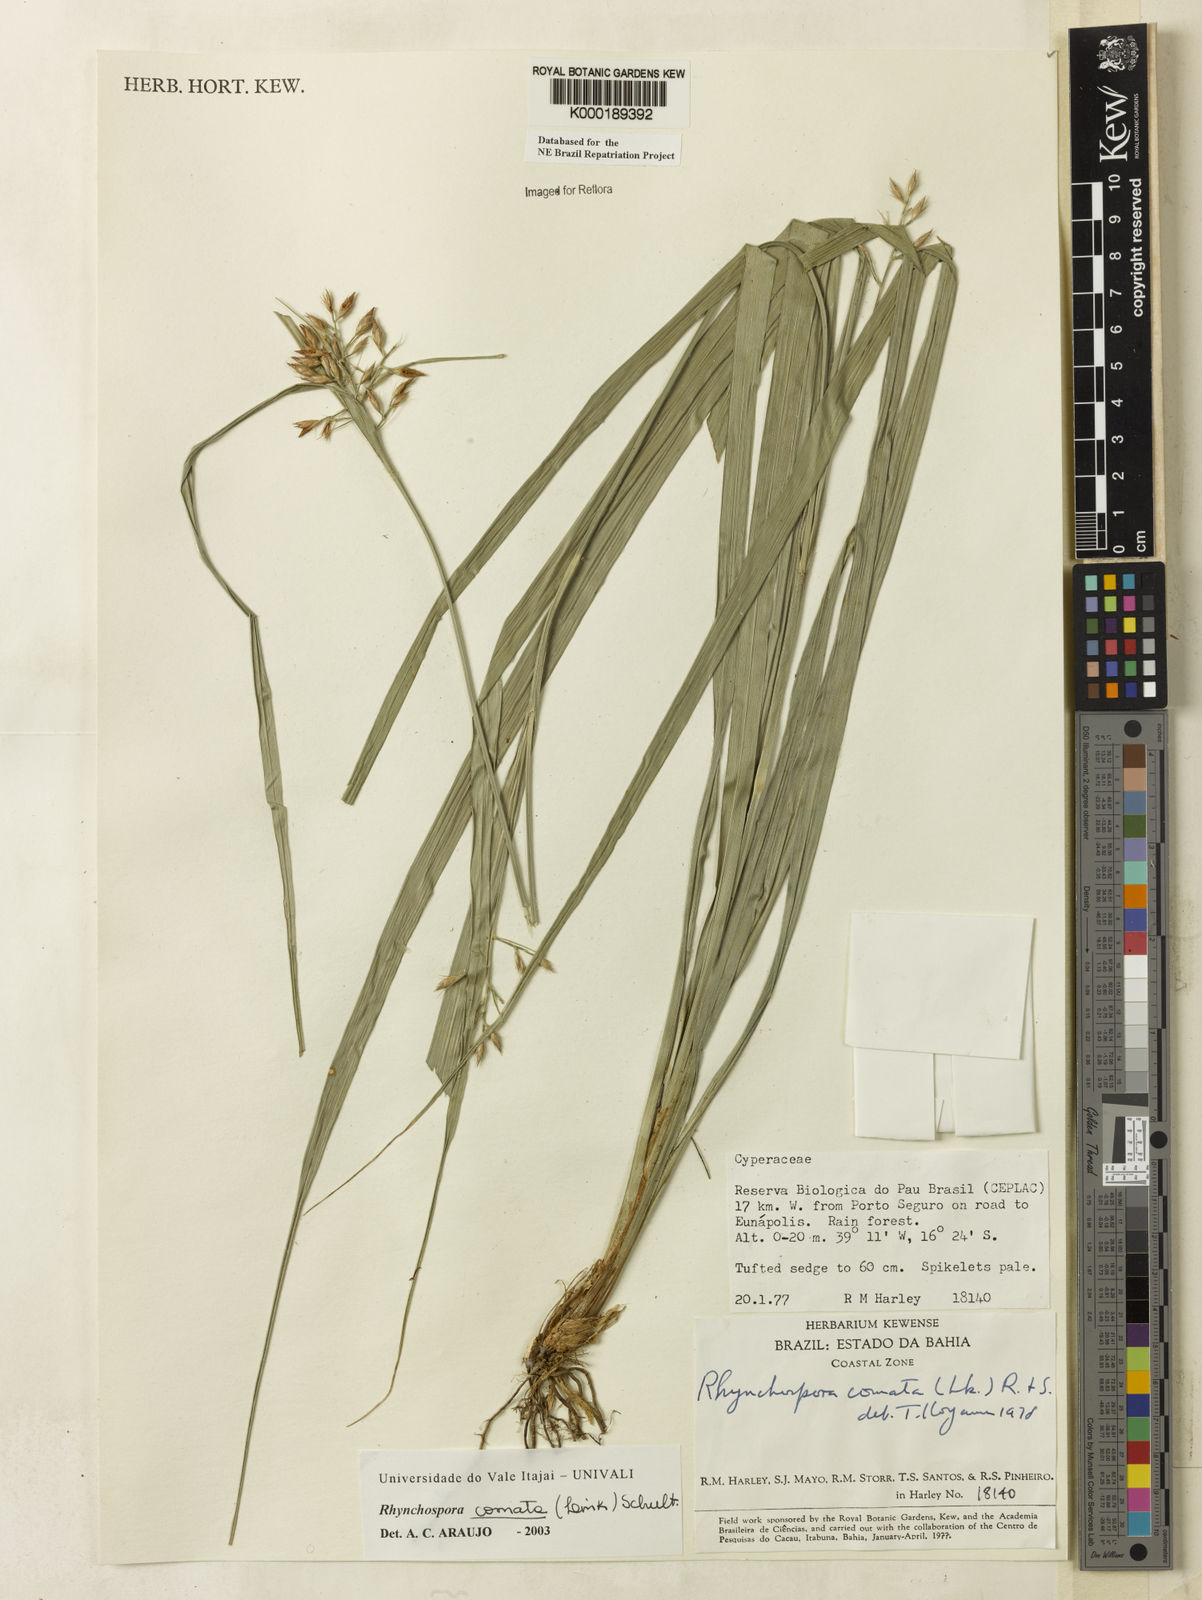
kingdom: Plantae
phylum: Tracheophyta
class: Liliopsida
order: Poales
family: Cyperaceae
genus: Rhynchospora
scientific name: Rhynchospora comata
